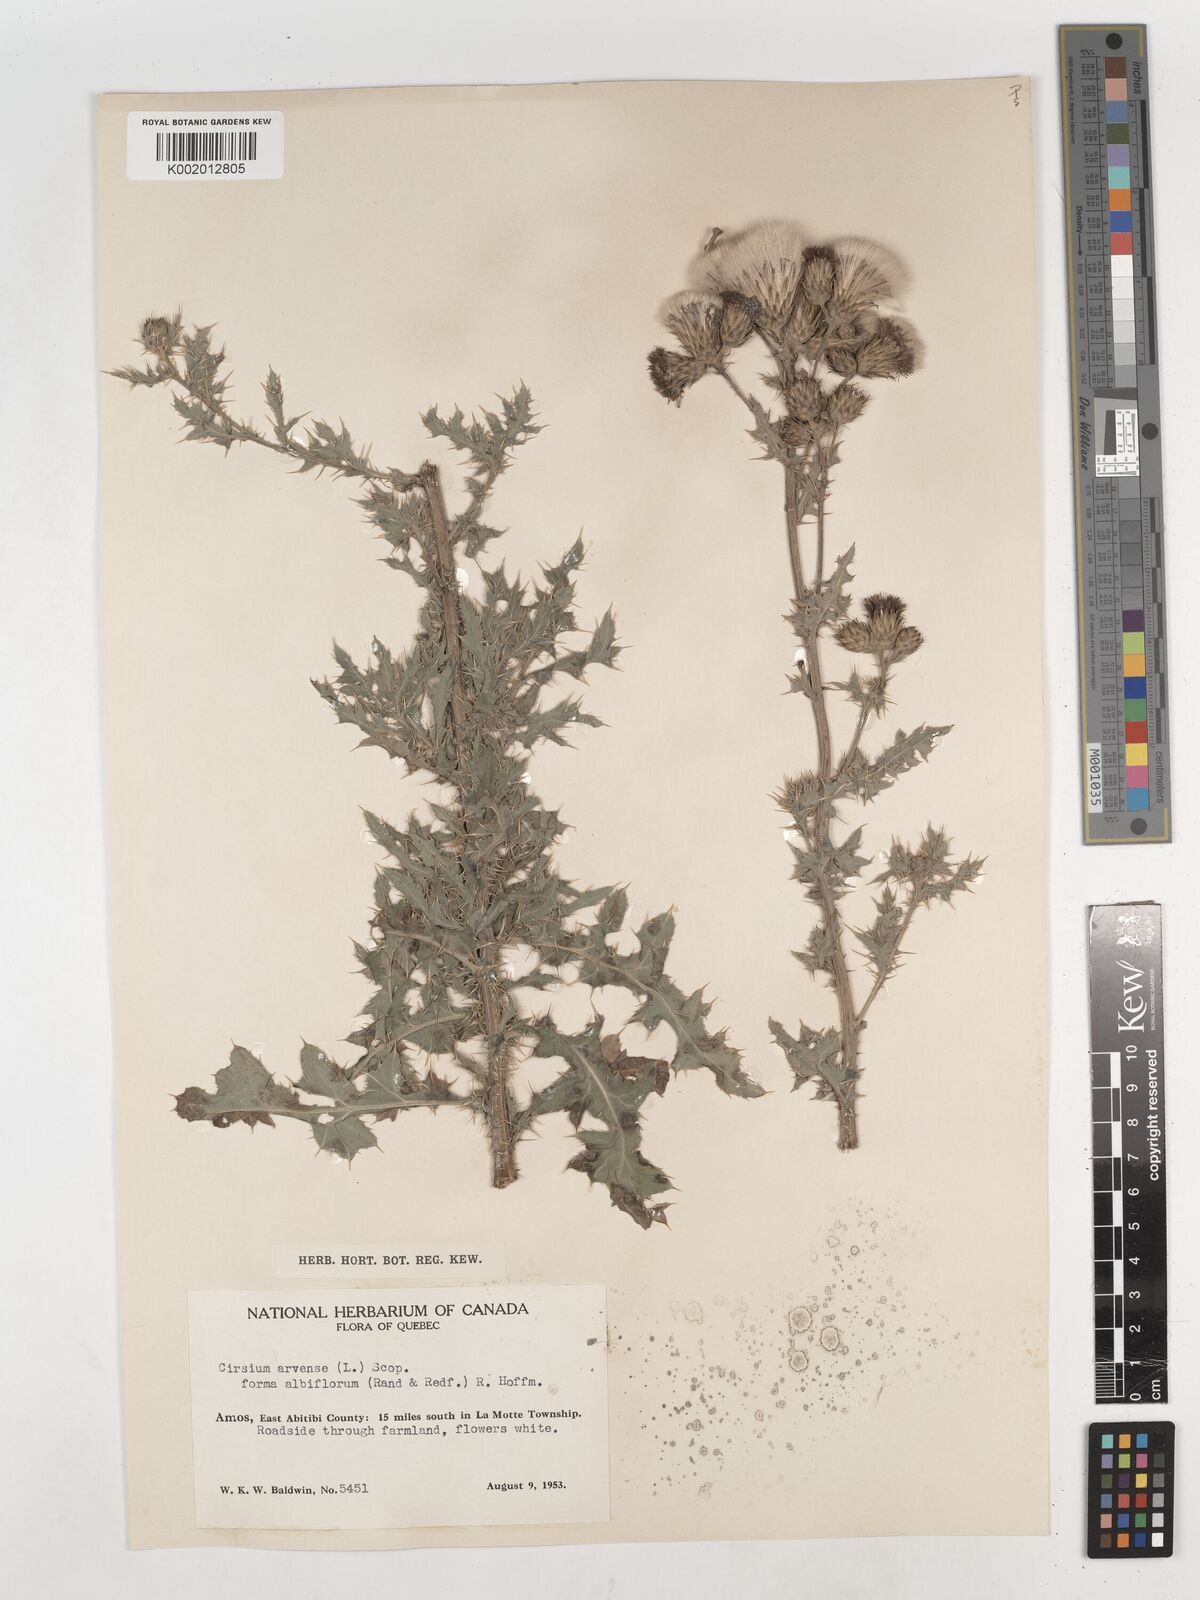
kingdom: Plantae
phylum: Tracheophyta
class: Magnoliopsida
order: Asterales
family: Asteraceae
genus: Cirsium
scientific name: Cirsium arvense
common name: Creeping thistle
